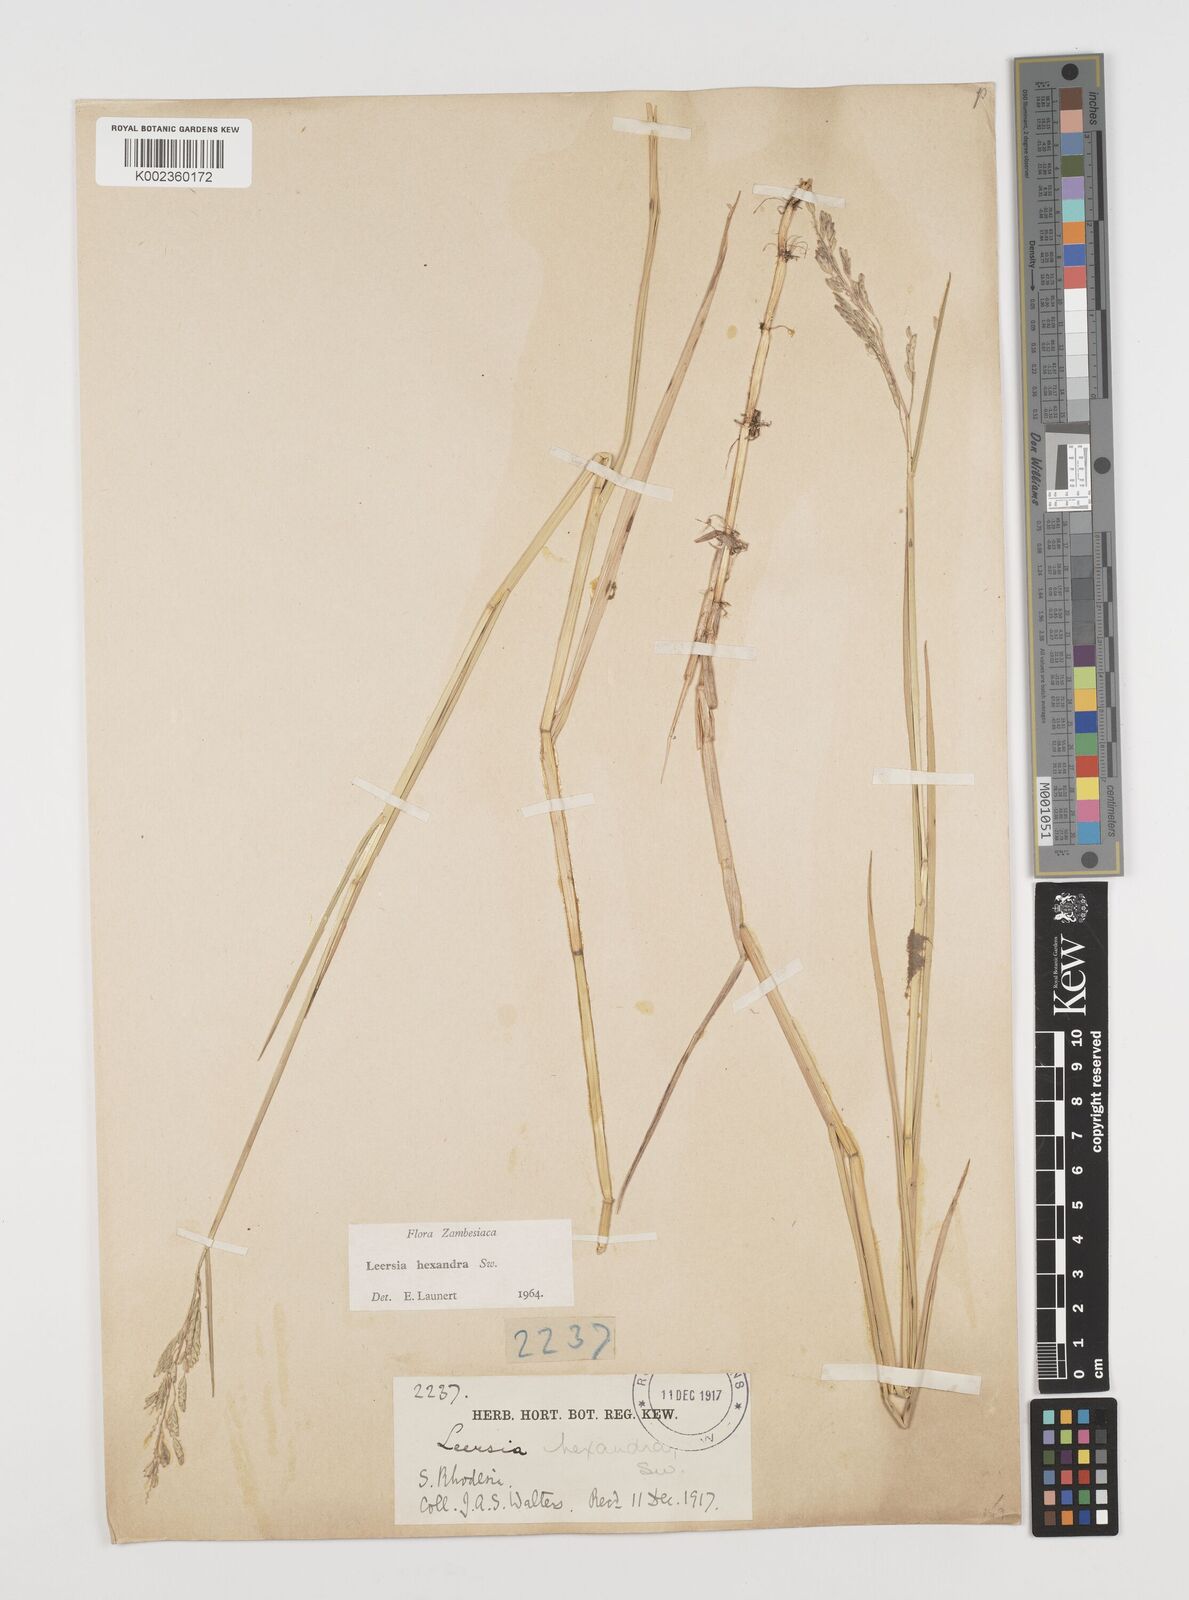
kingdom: Plantae
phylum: Tracheophyta
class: Liliopsida
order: Poales
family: Poaceae
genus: Leersia
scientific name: Leersia hexandra
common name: Southern cut grass
